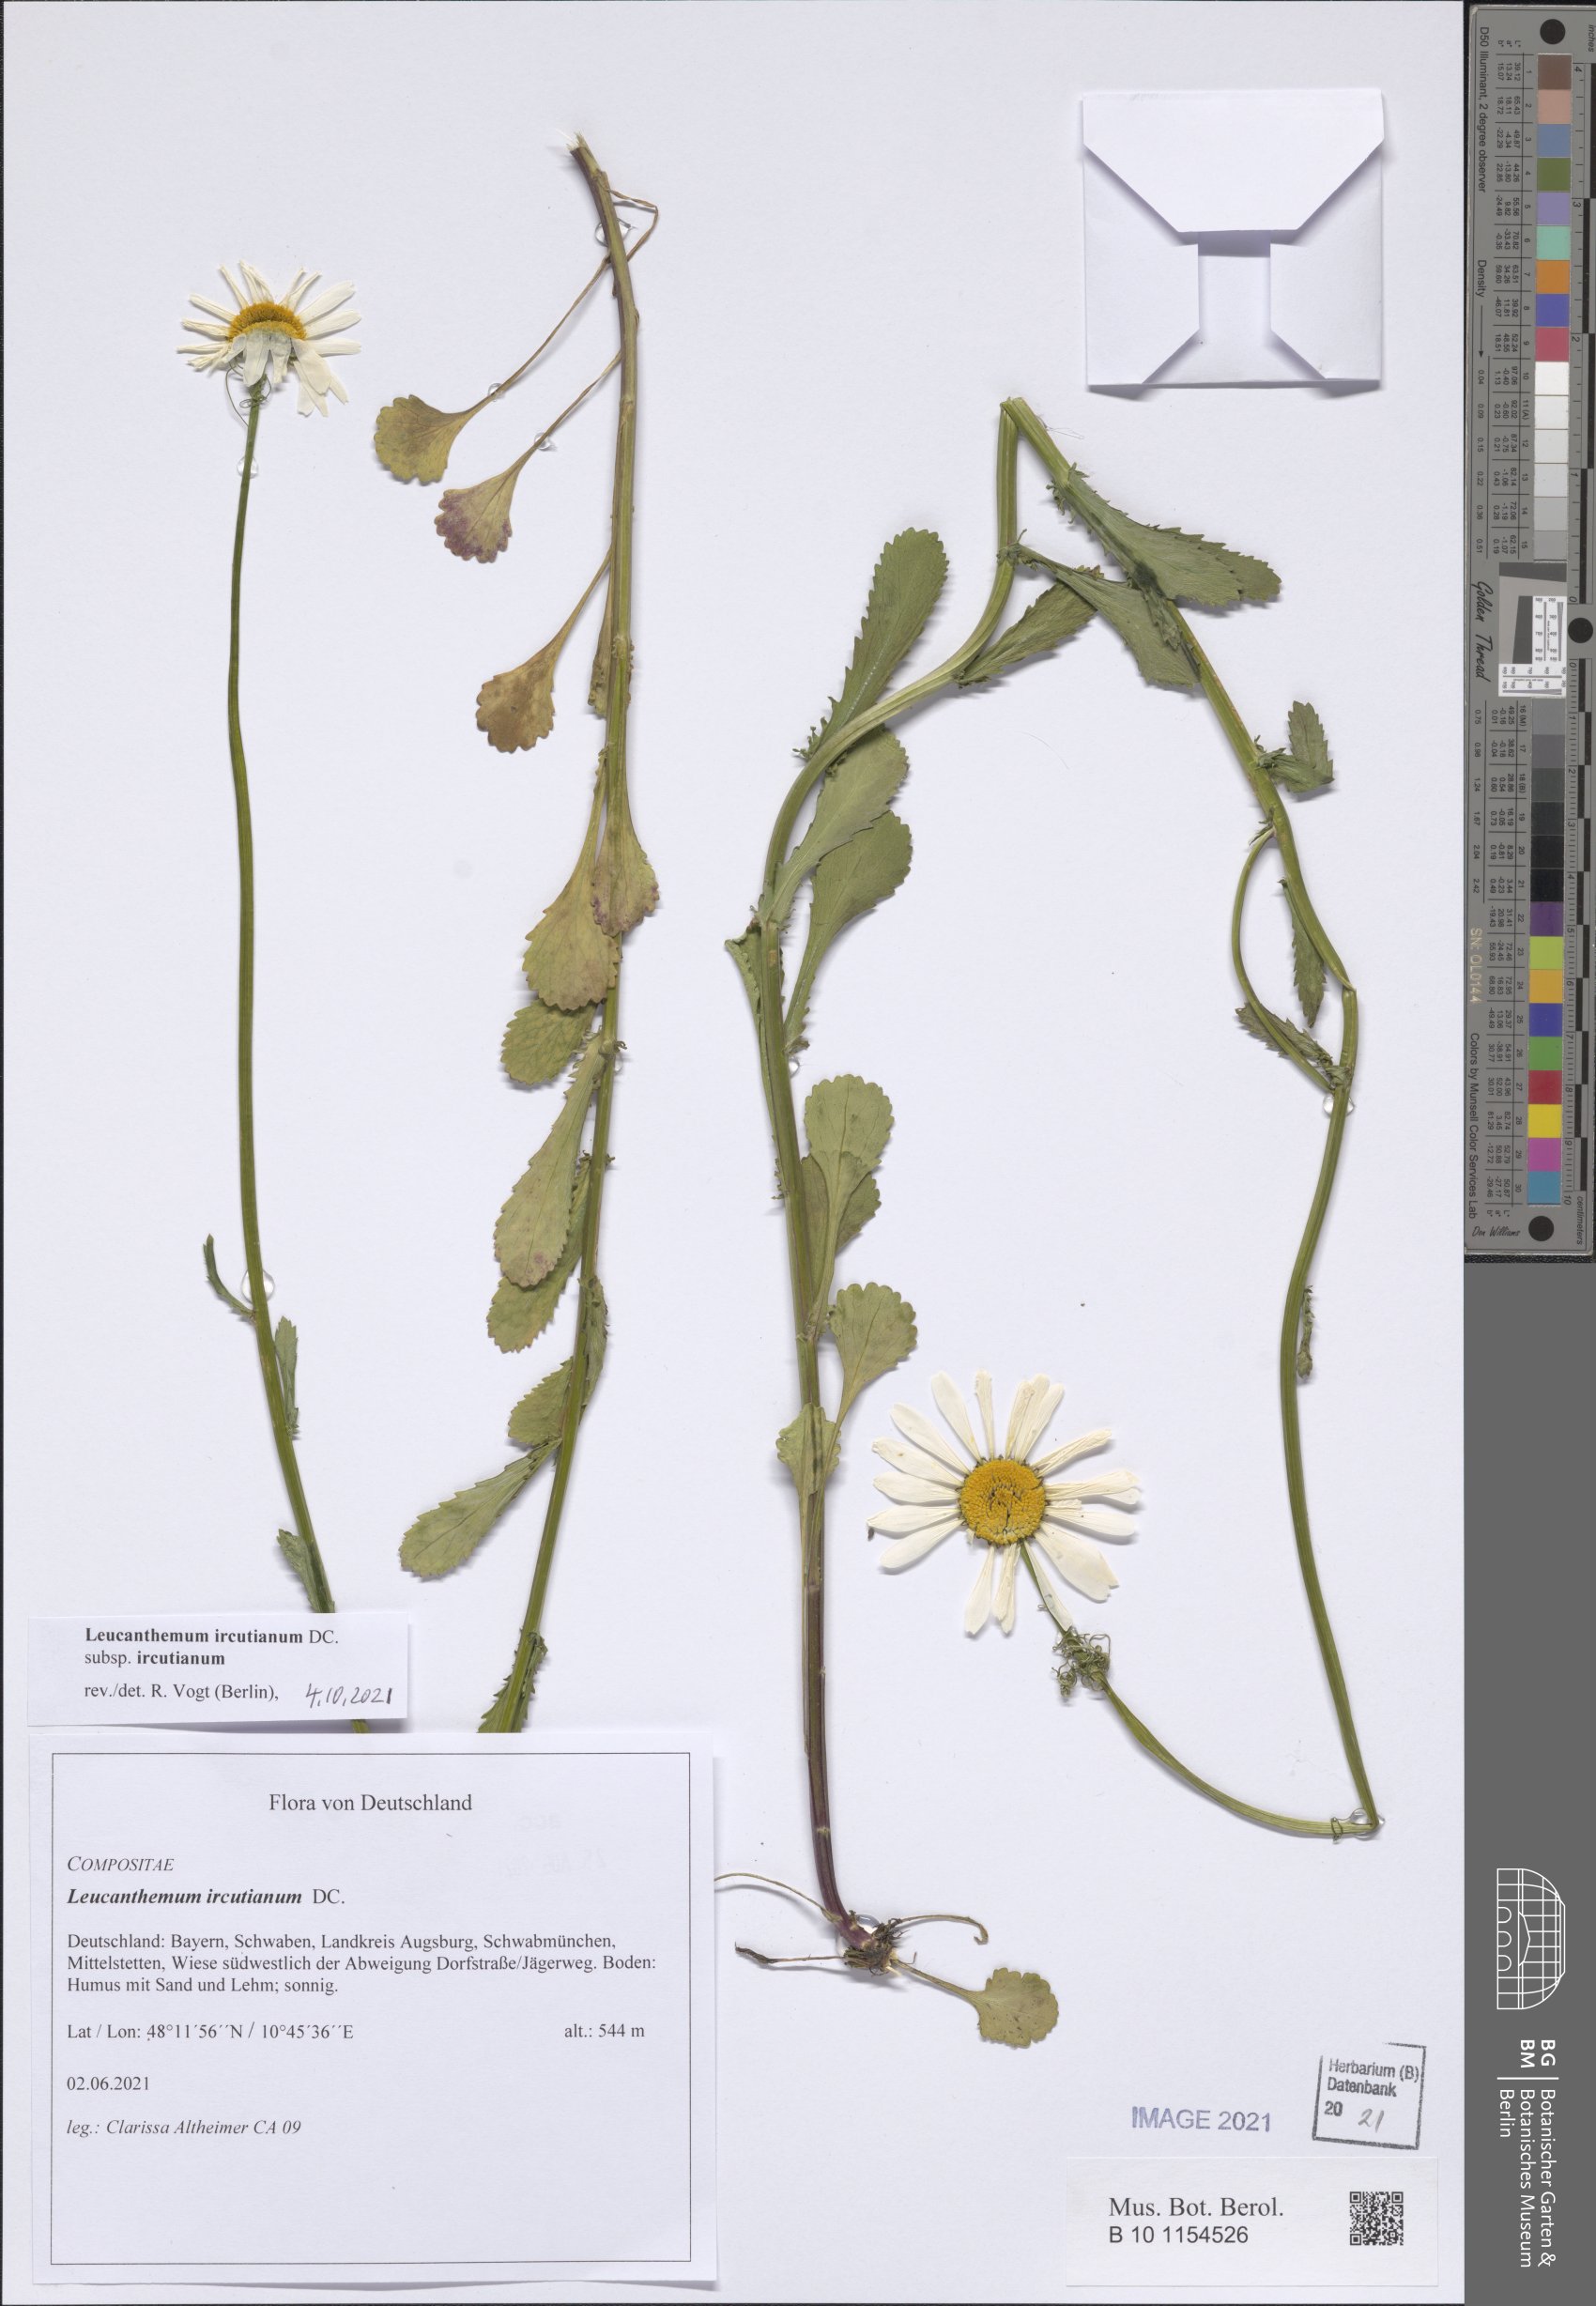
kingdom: Plantae
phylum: Tracheophyta
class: Magnoliopsida
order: Asterales
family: Asteraceae
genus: Leucanthemum
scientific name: Leucanthemum ircutianum
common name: Daisy
